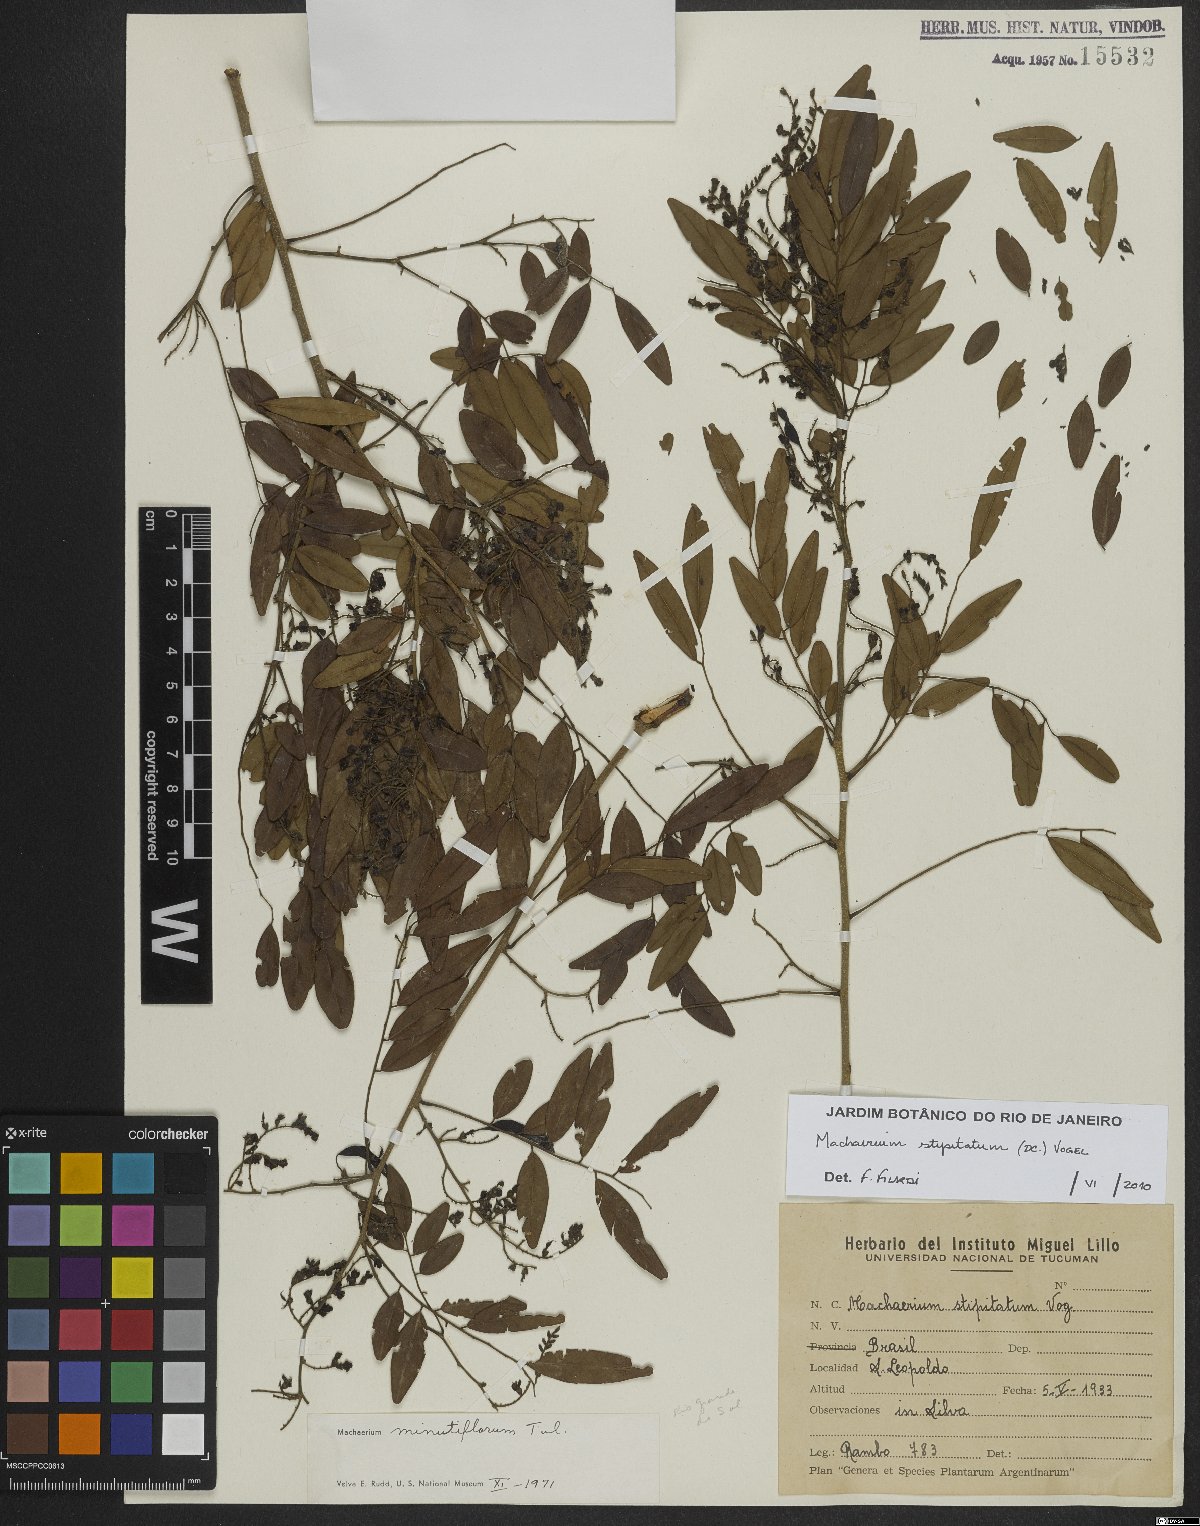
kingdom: Plantae
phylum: Tracheophyta
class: Magnoliopsida
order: Fabales
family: Fabaceae
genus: Machaerium
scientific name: Machaerium stipitatum
